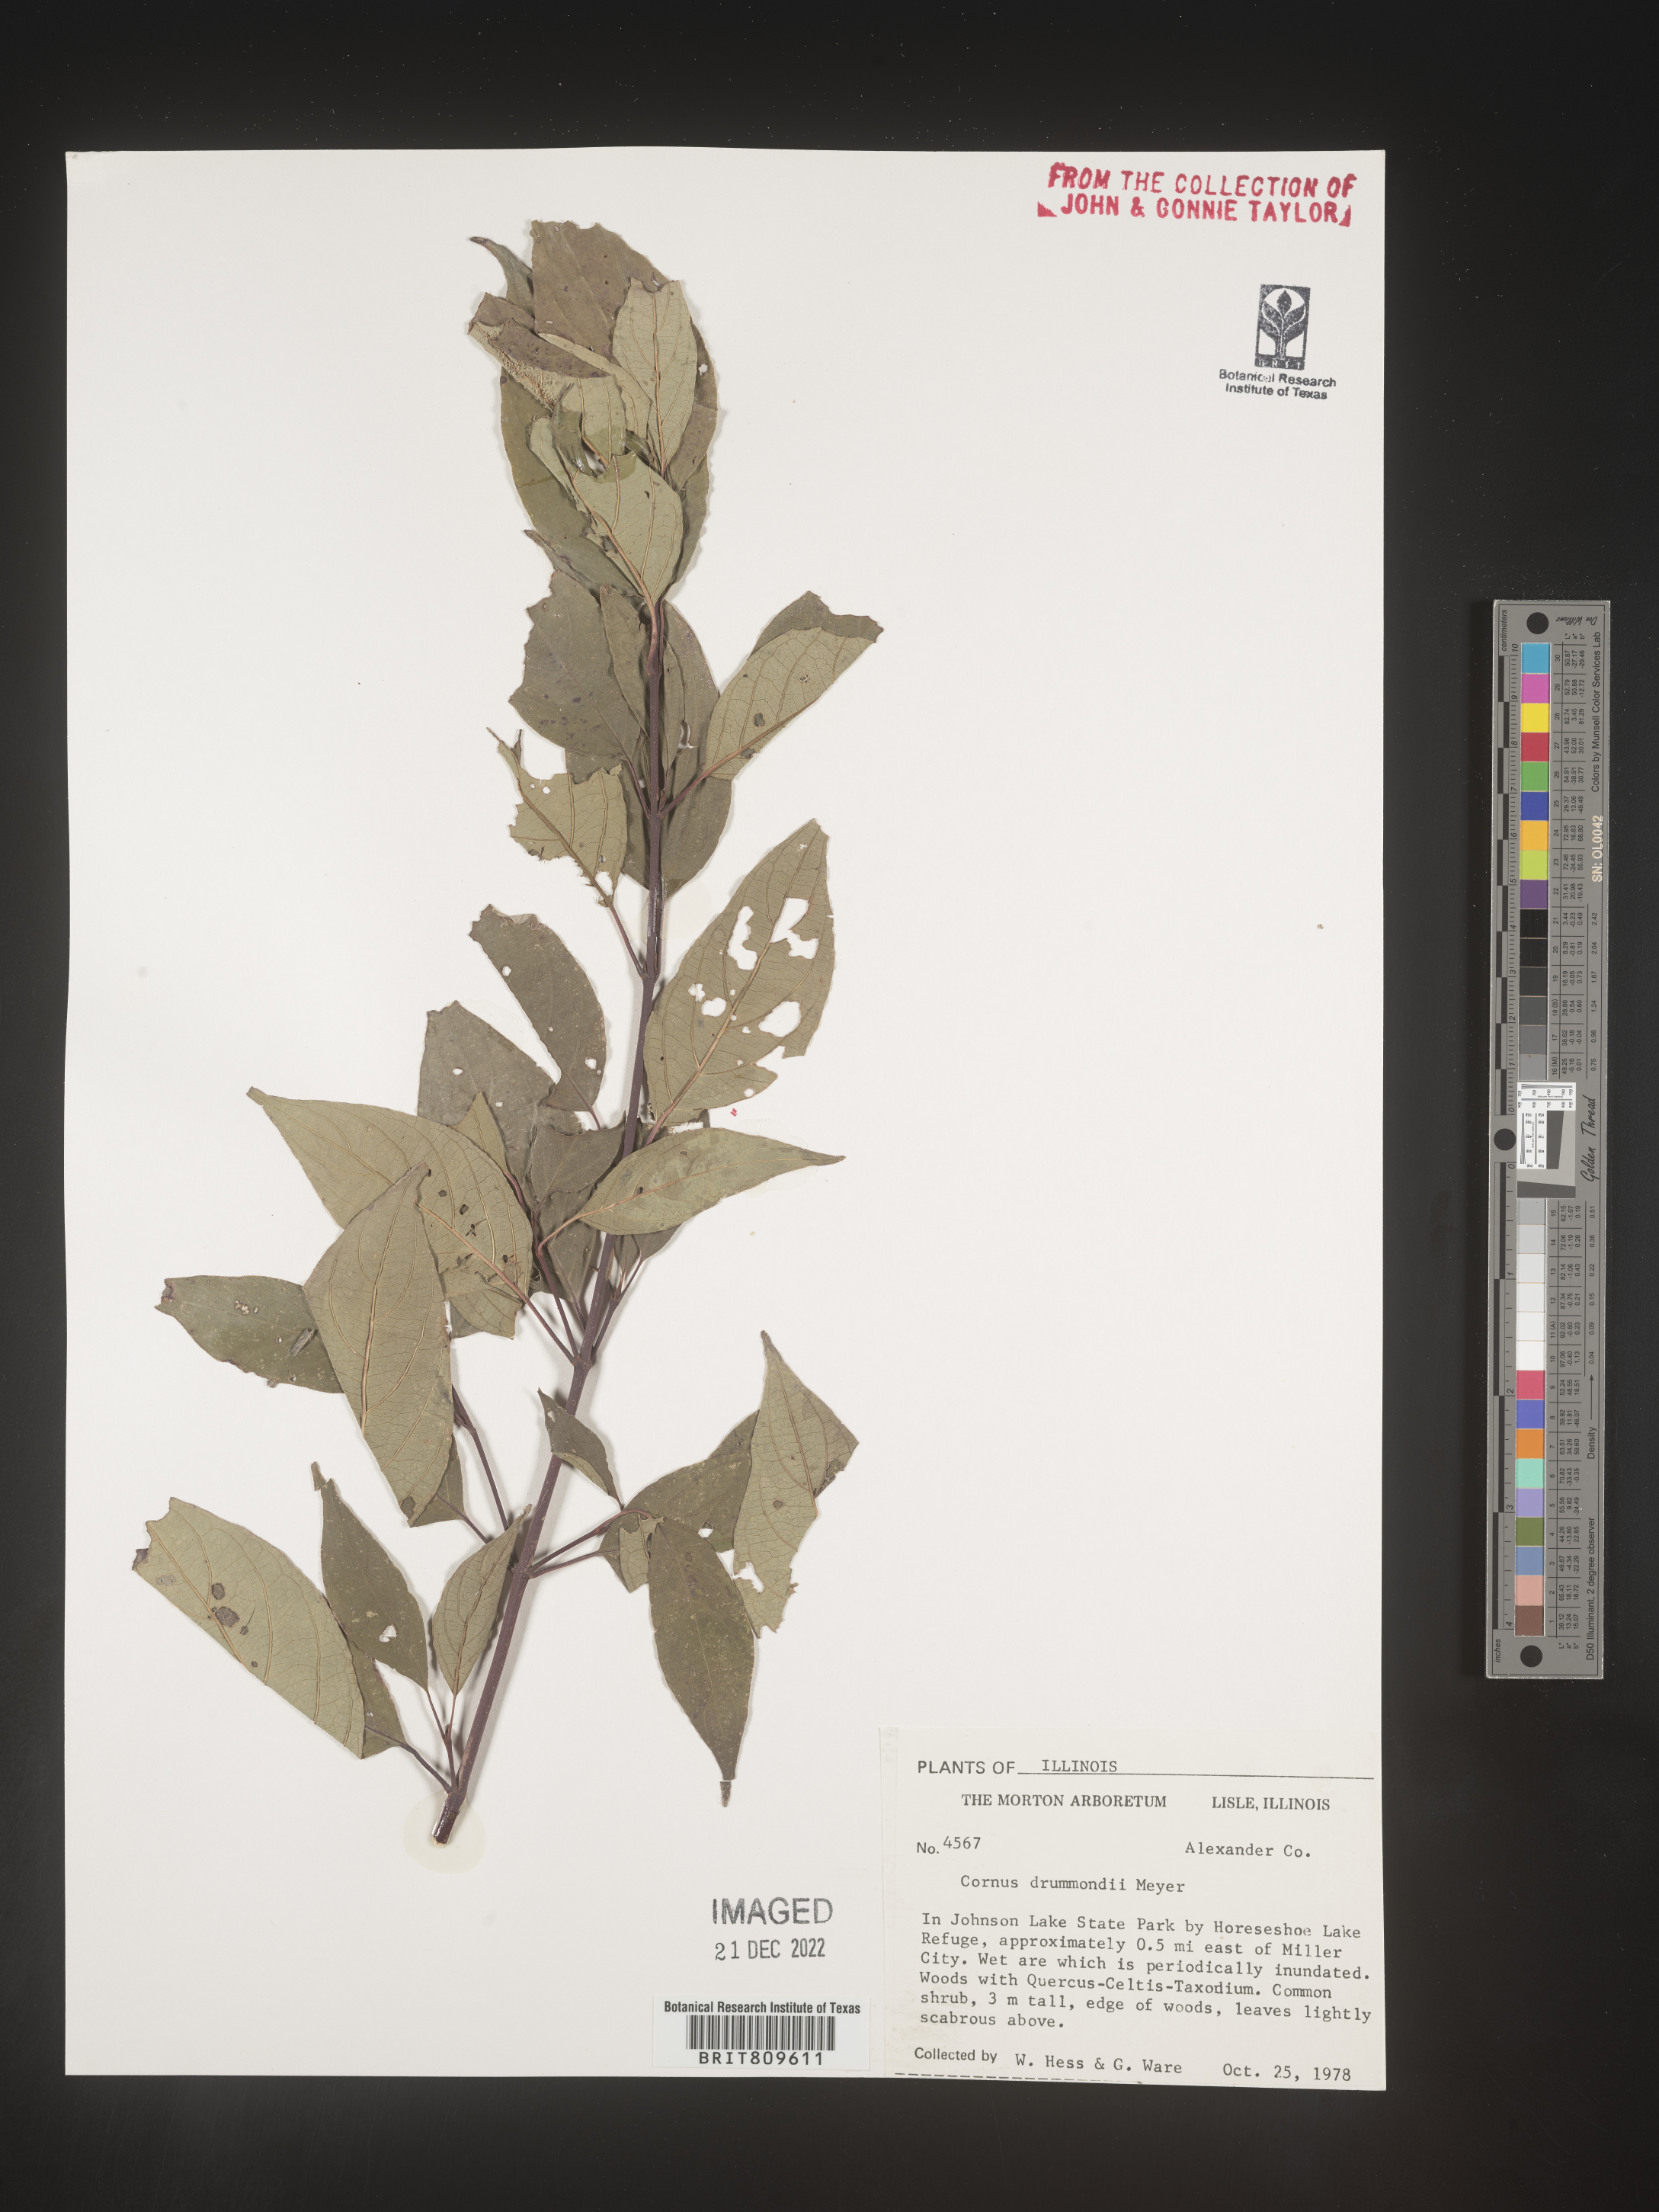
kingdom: Plantae
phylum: Tracheophyta
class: Magnoliopsida
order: Cornales
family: Cornaceae
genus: Cornus
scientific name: Cornus drummondii
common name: Rough-leaf dogwood
